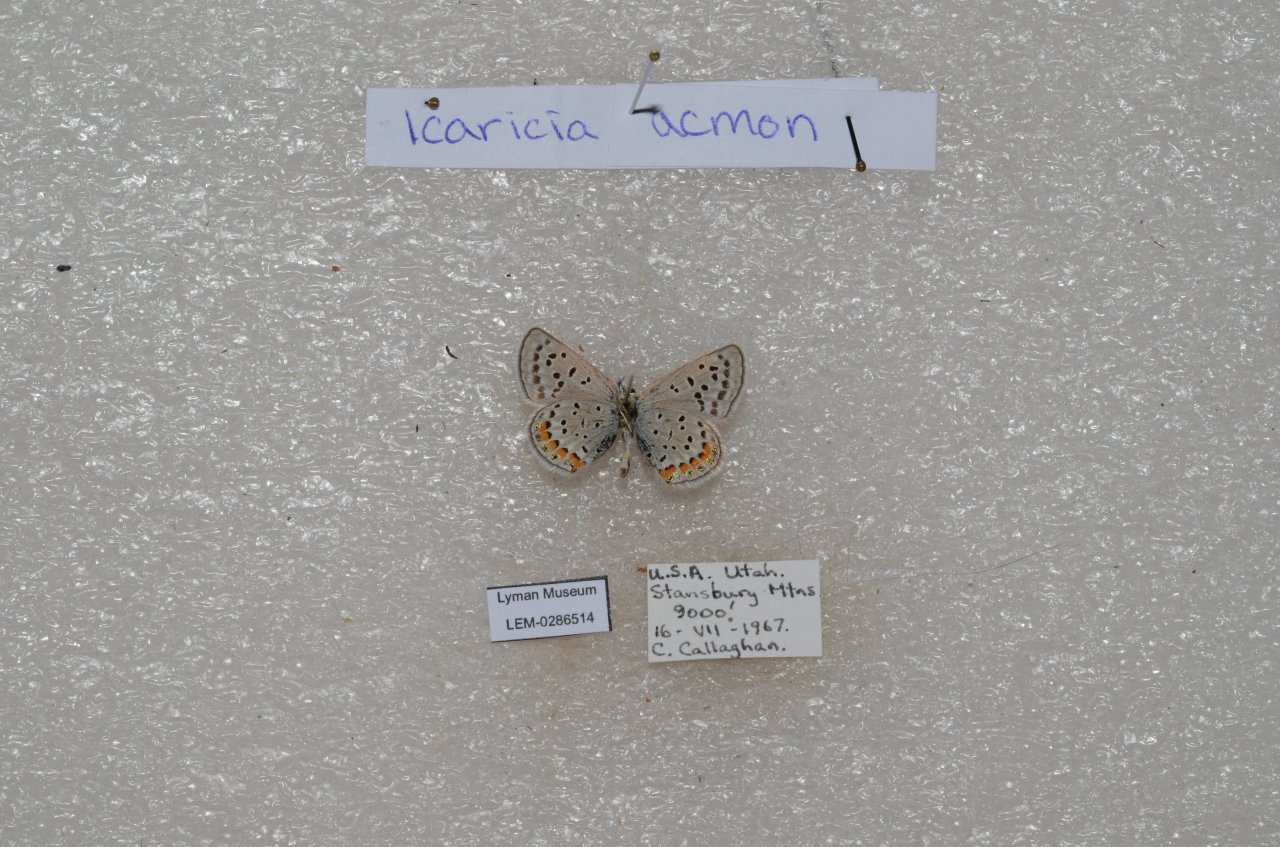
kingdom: Animalia
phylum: Arthropoda
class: Insecta
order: Lepidoptera
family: Lycaenidae
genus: Plebejus
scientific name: Plebejus acmon
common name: Acmon Blue
